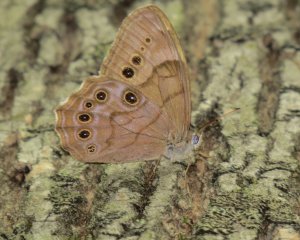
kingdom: Animalia
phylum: Arthropoda
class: Insecta
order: Lepidoptera
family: Nymphalidae
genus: Lethe
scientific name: Lethe anthedon
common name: Northern Pearly-Eye
